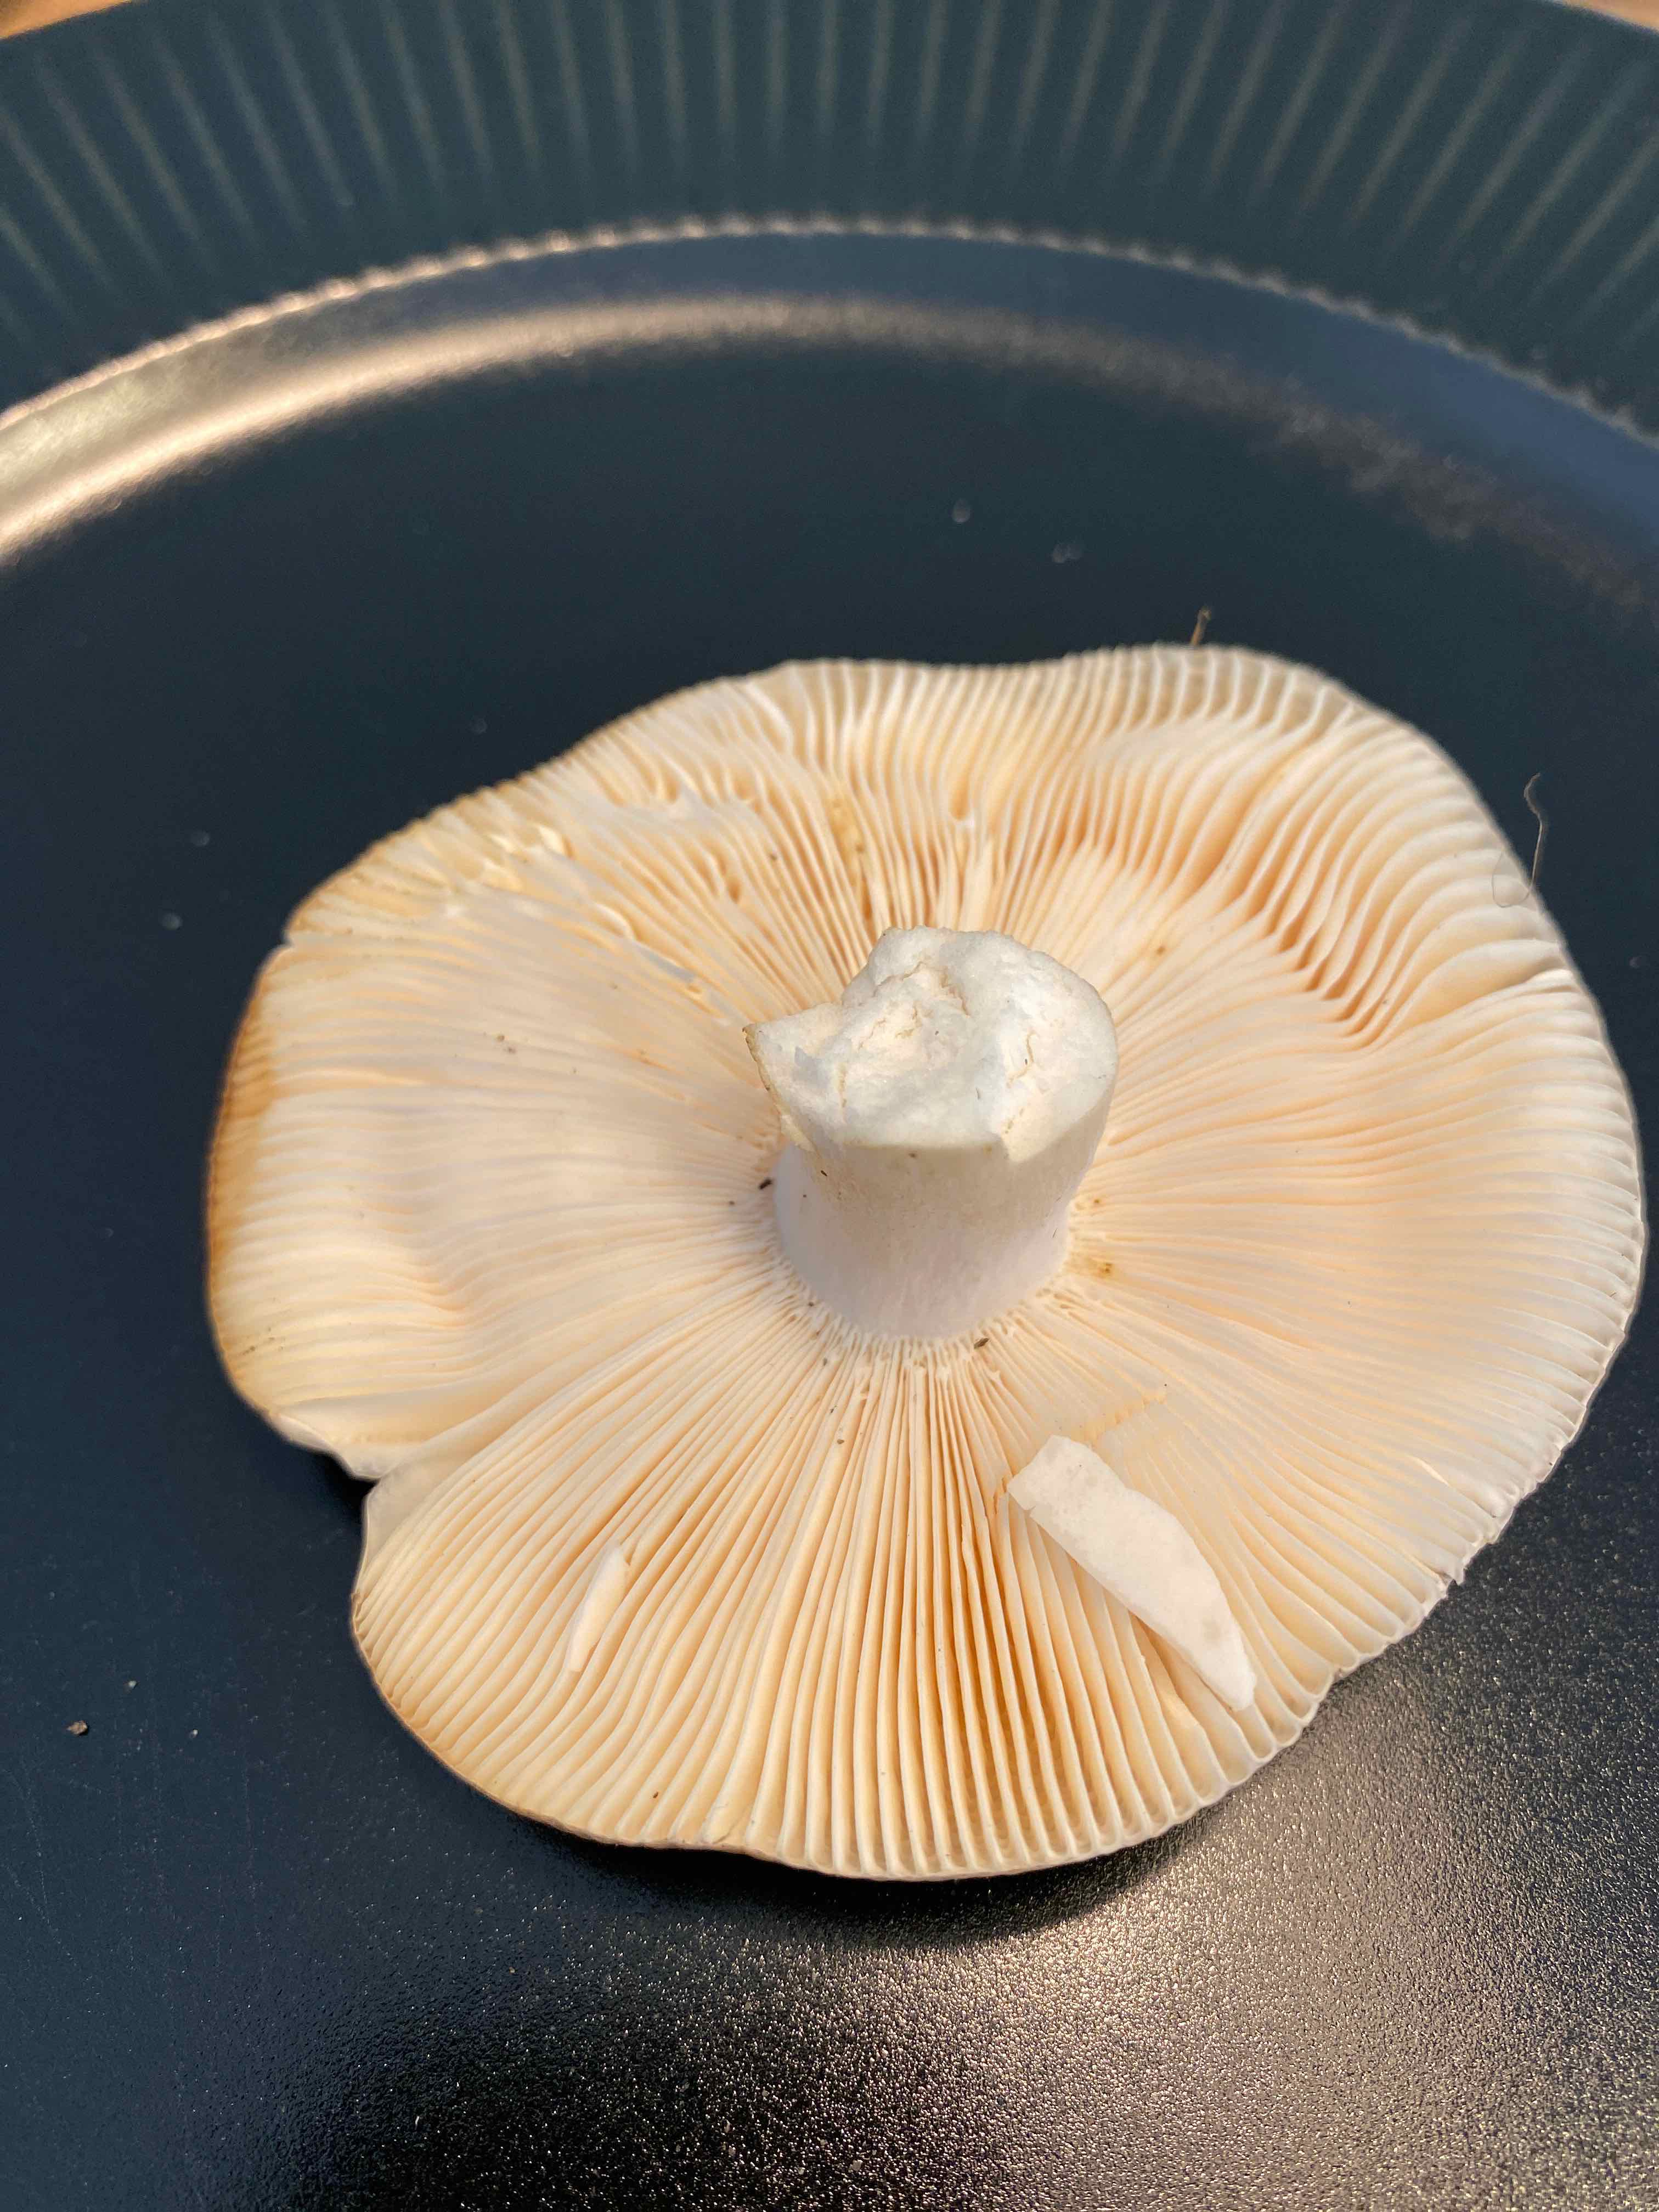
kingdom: Fungi
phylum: Basidiomycota
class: Agaricomycetes
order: Russulales
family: Russulaceae
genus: Russula
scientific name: Russula
